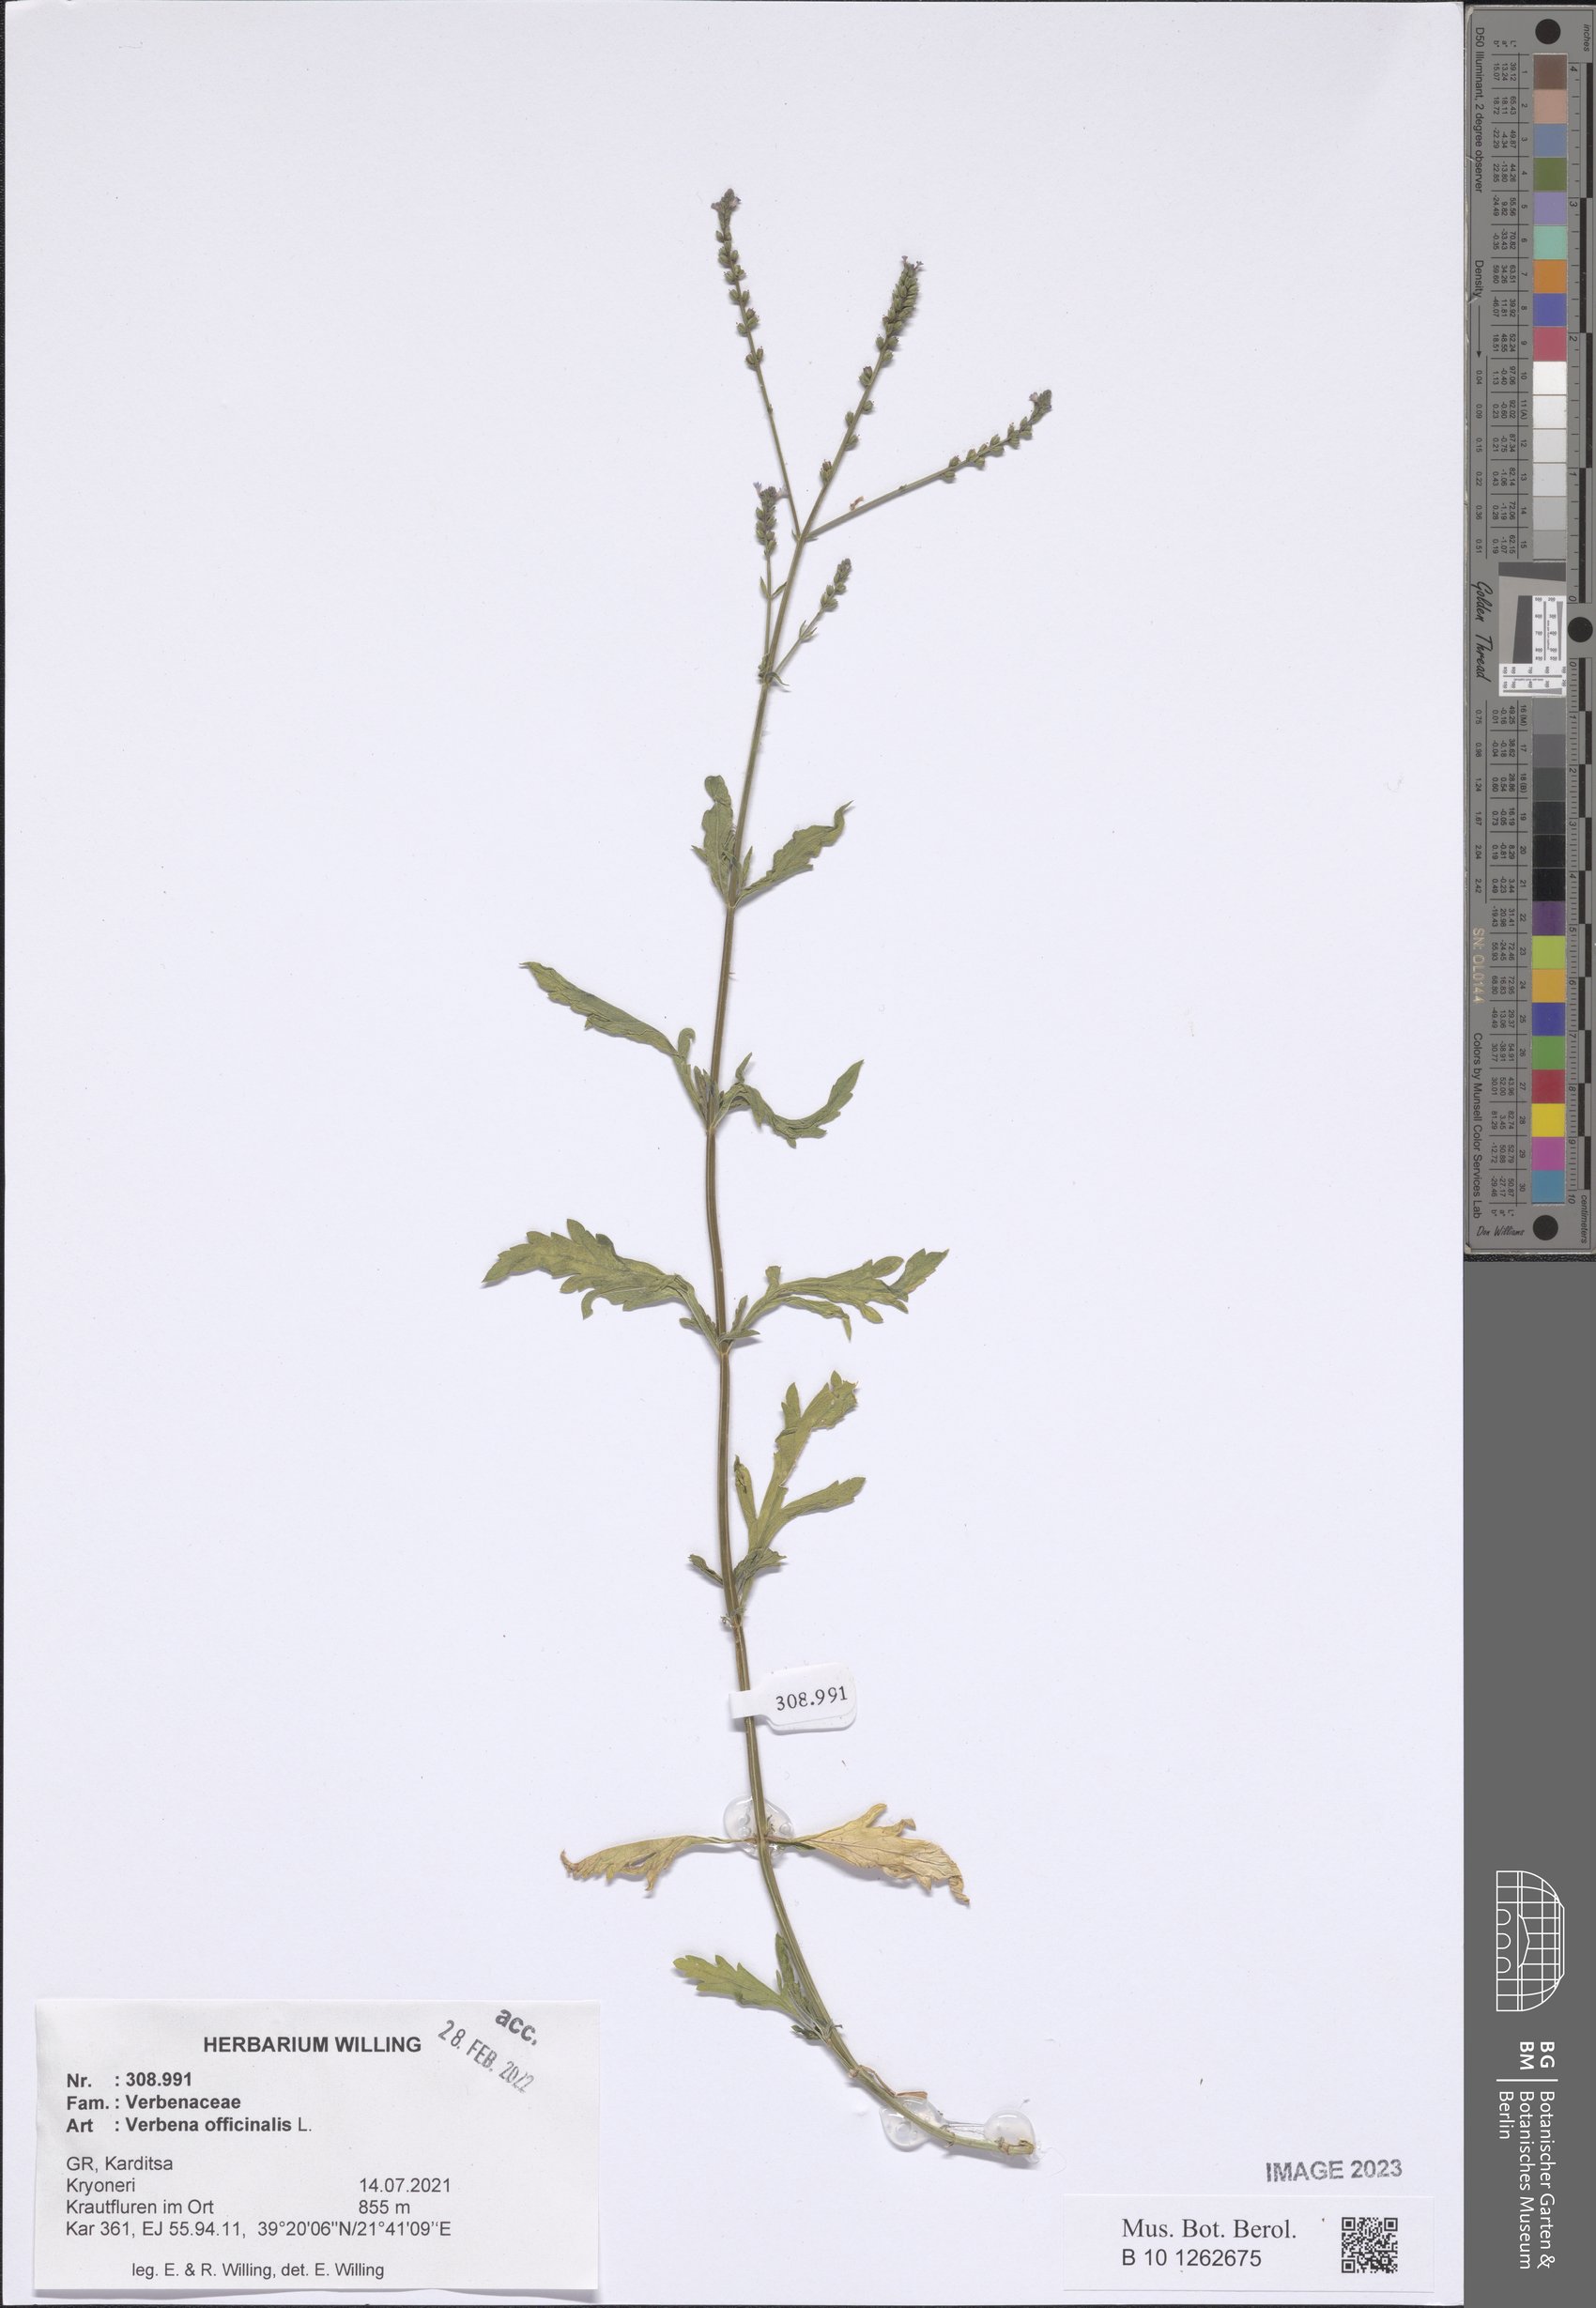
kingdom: Plantae
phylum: Tracheophyta
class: Magnoliopsida
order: Lamiales
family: Verbenaceae
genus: Verbena
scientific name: Verbena officinalis
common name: Vervain
